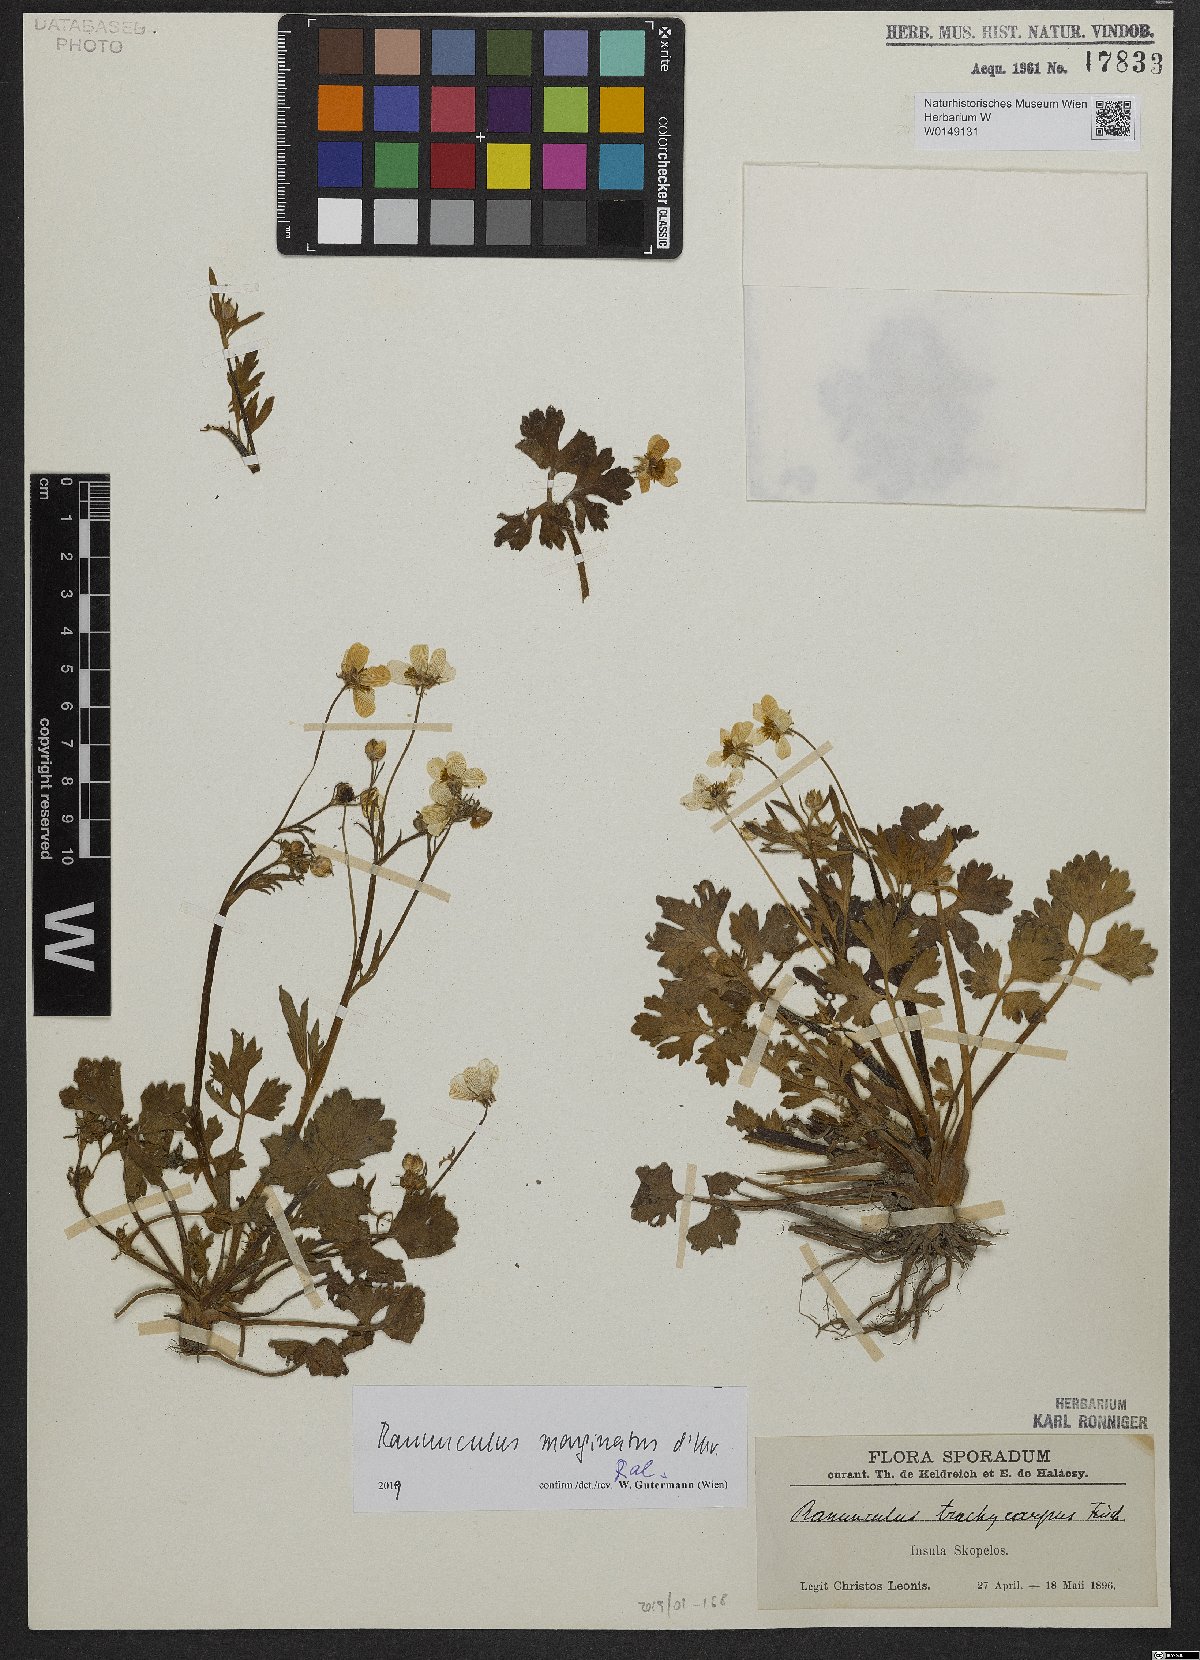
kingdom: Plantae
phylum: Tracheophyta
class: Magnoliopsida
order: Ranunculales
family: Ranunculaceae
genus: Ranunculus
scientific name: Ranunculus marginatus
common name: St. martin's buttercup
